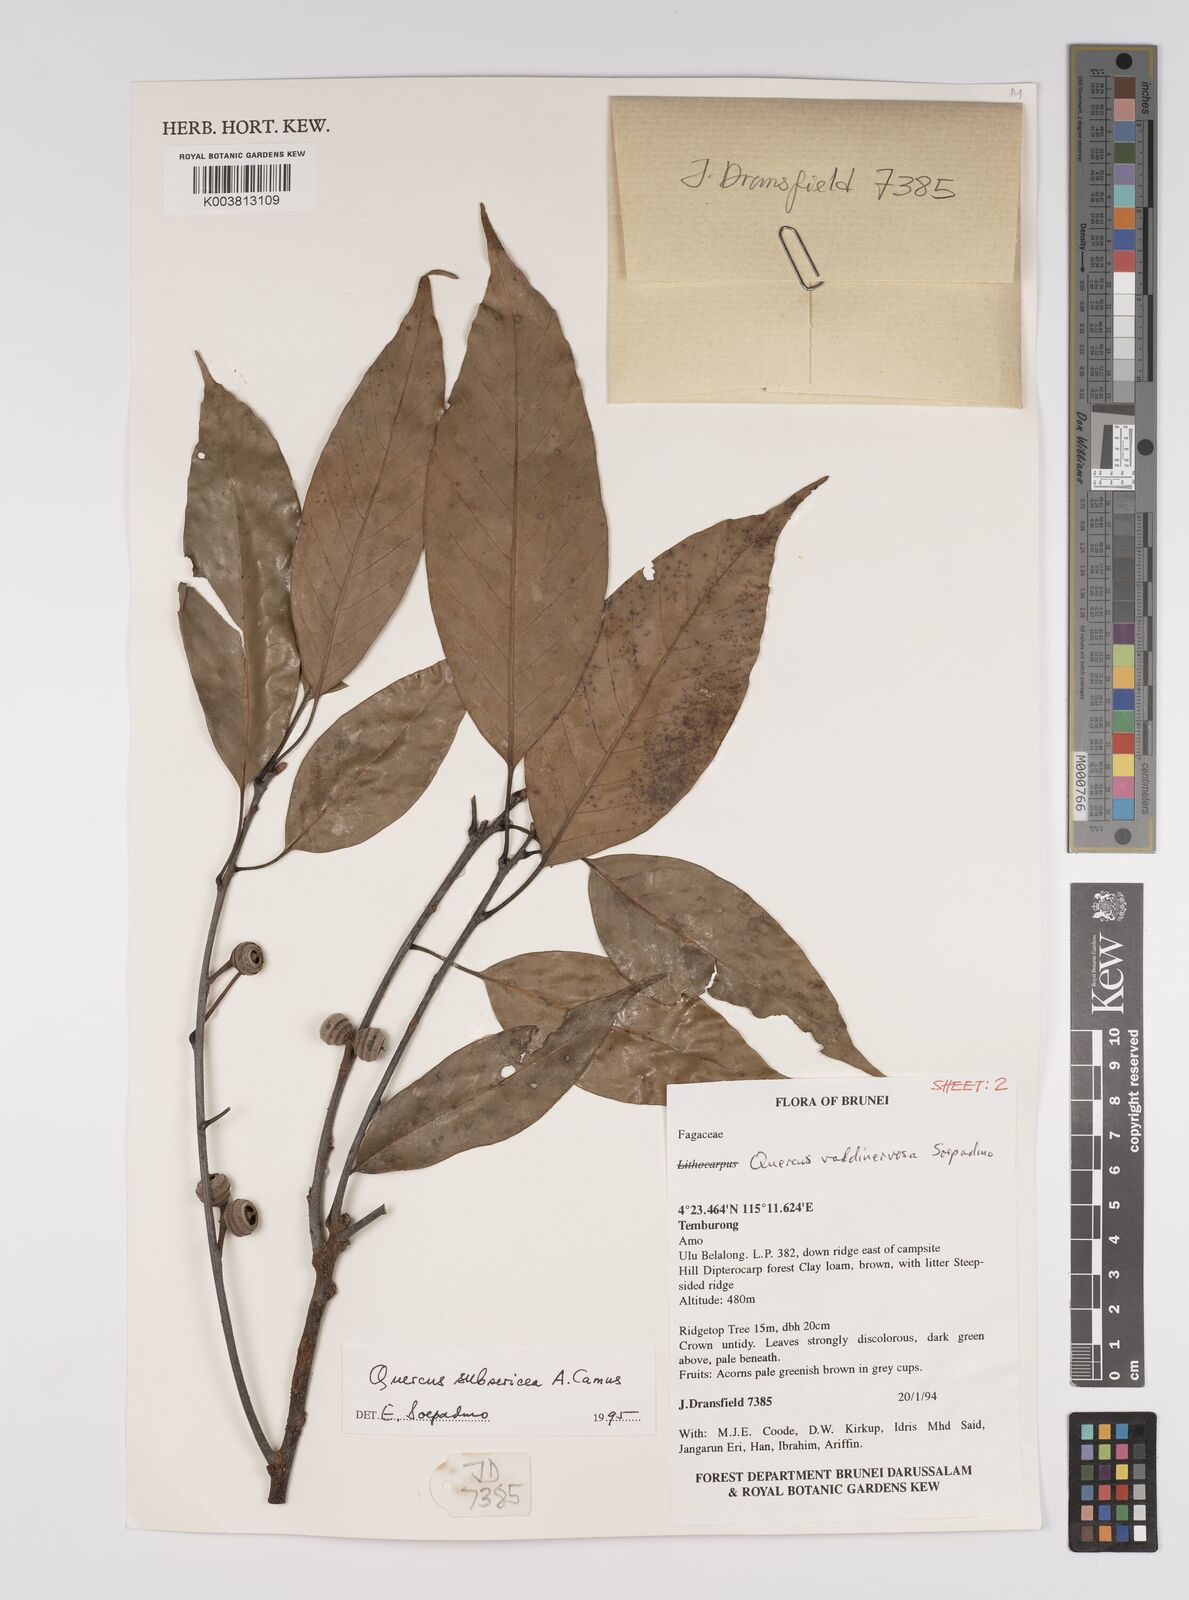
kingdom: Plantae
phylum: Tracheophyta
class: Magnoliopsida
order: Fagales
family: Fagaceae
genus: Quercus
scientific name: Quercus subsericea
